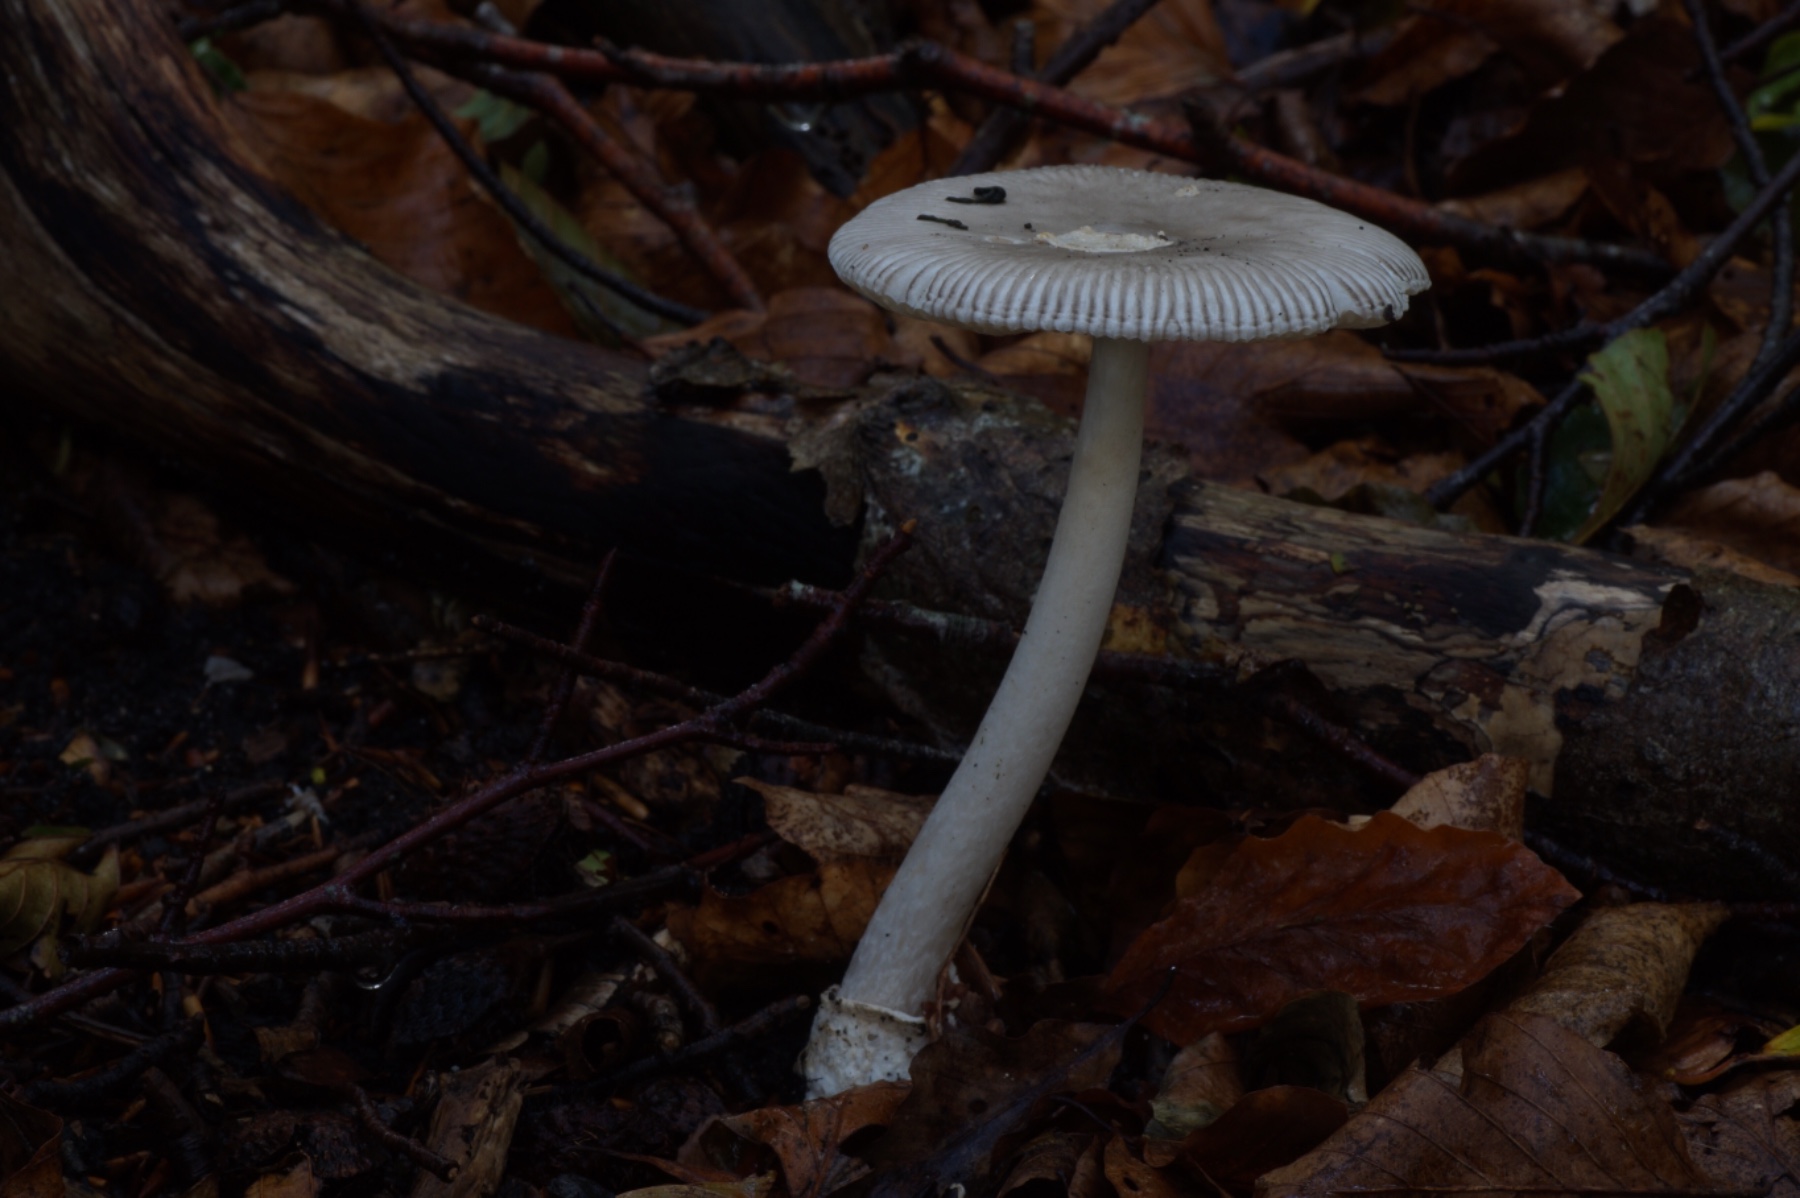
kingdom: Fungi
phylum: Basidiomycota
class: Agaricomycetes
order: Agaricales
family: Amanitaceae
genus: Amanita
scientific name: Amanita vaginata
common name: grå kam-fluesvamp
